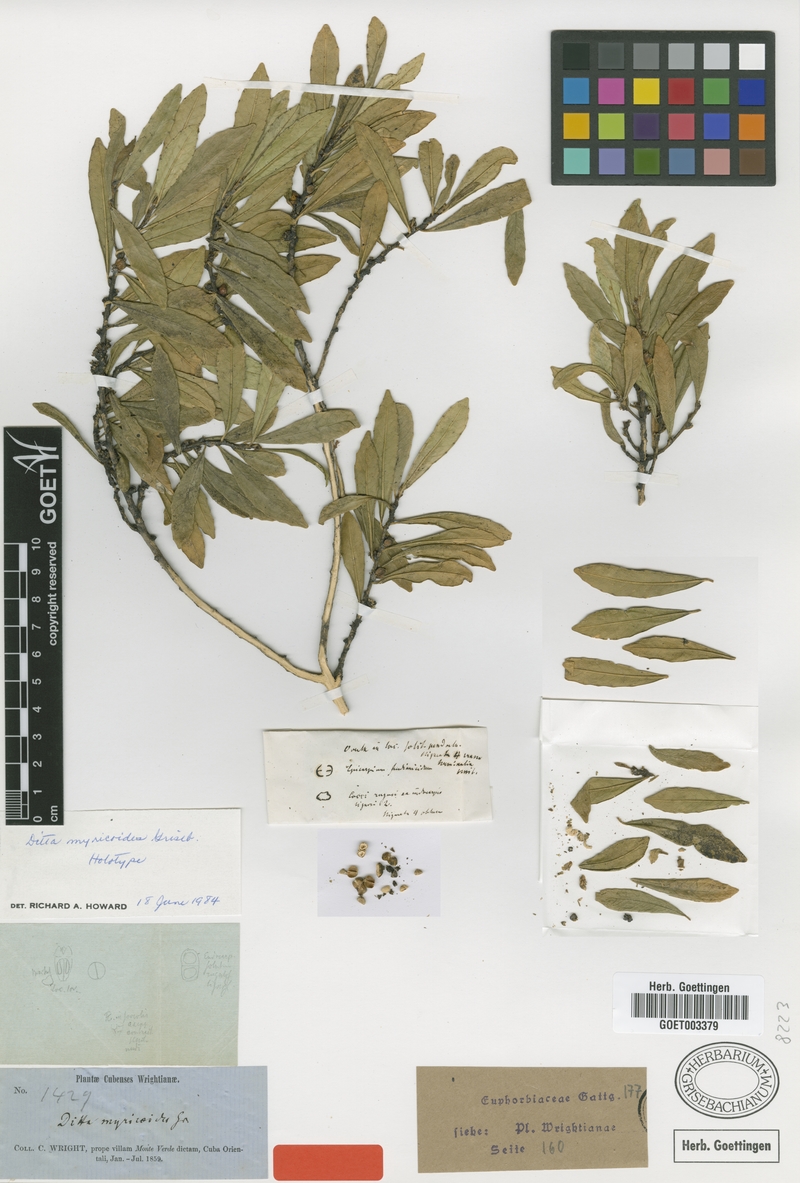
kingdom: Plantae
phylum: Tracheophyta
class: Magnoliopsida
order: Malpighiales
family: Euphorbiaceae
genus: Ditta
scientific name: Ditta myricoides
